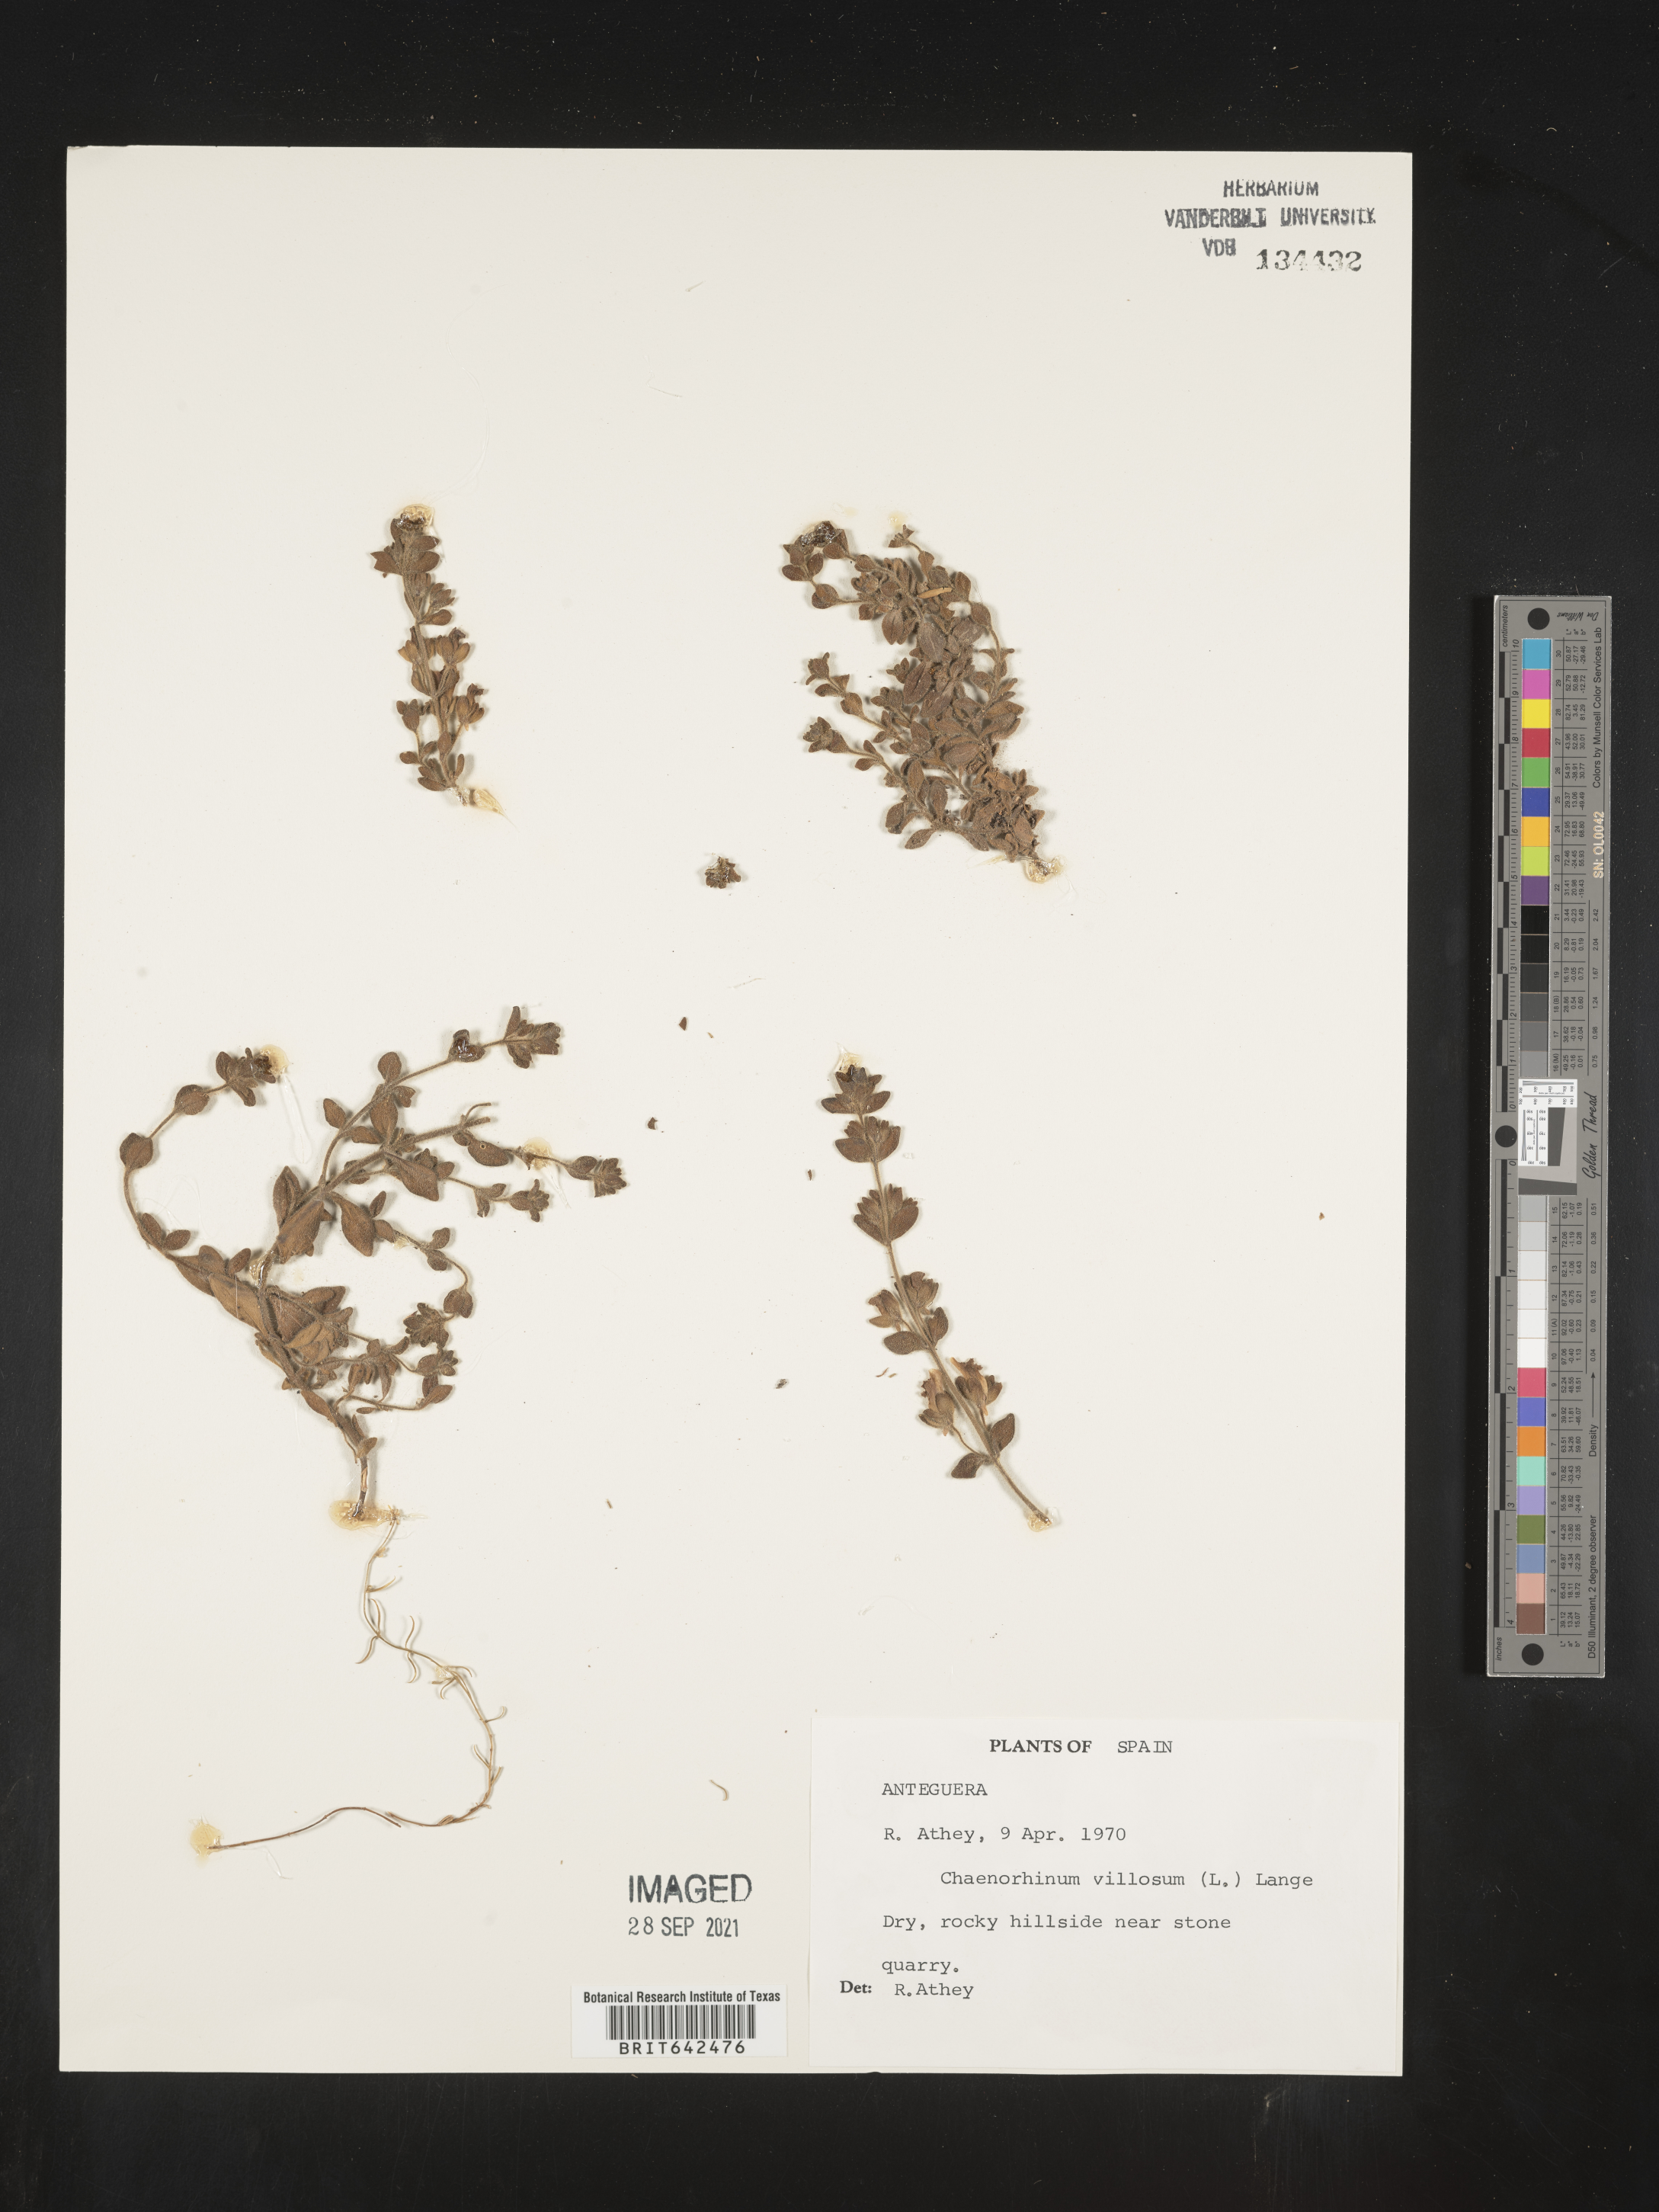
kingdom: Plantae
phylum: Tracheophyta
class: Magnoliopsida
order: Lamiales
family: Plantaginaceae
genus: Chaenorhinum
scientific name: Chaenorhinum
